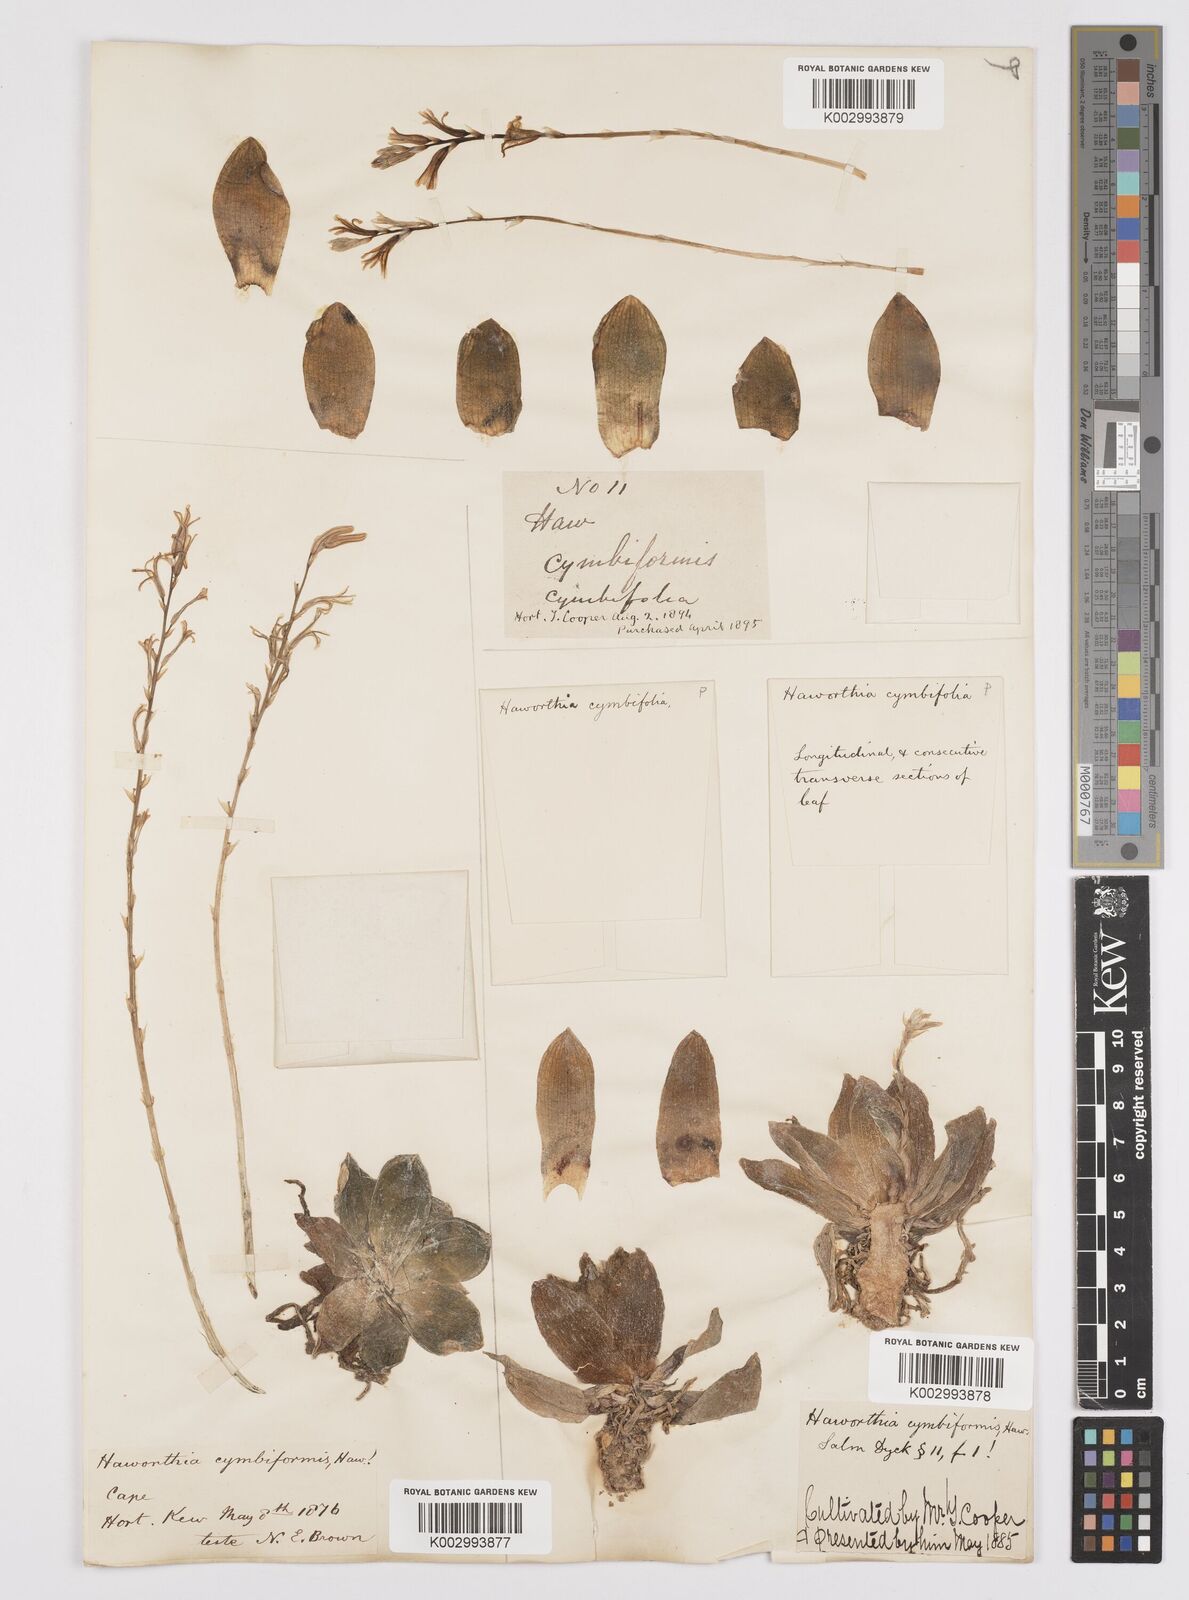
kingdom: Plantae
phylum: Tracheophyta
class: Liliopsida
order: Asparagales
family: Asphodelaceae
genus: Haworthia
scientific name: Haworthia cymbiformis
